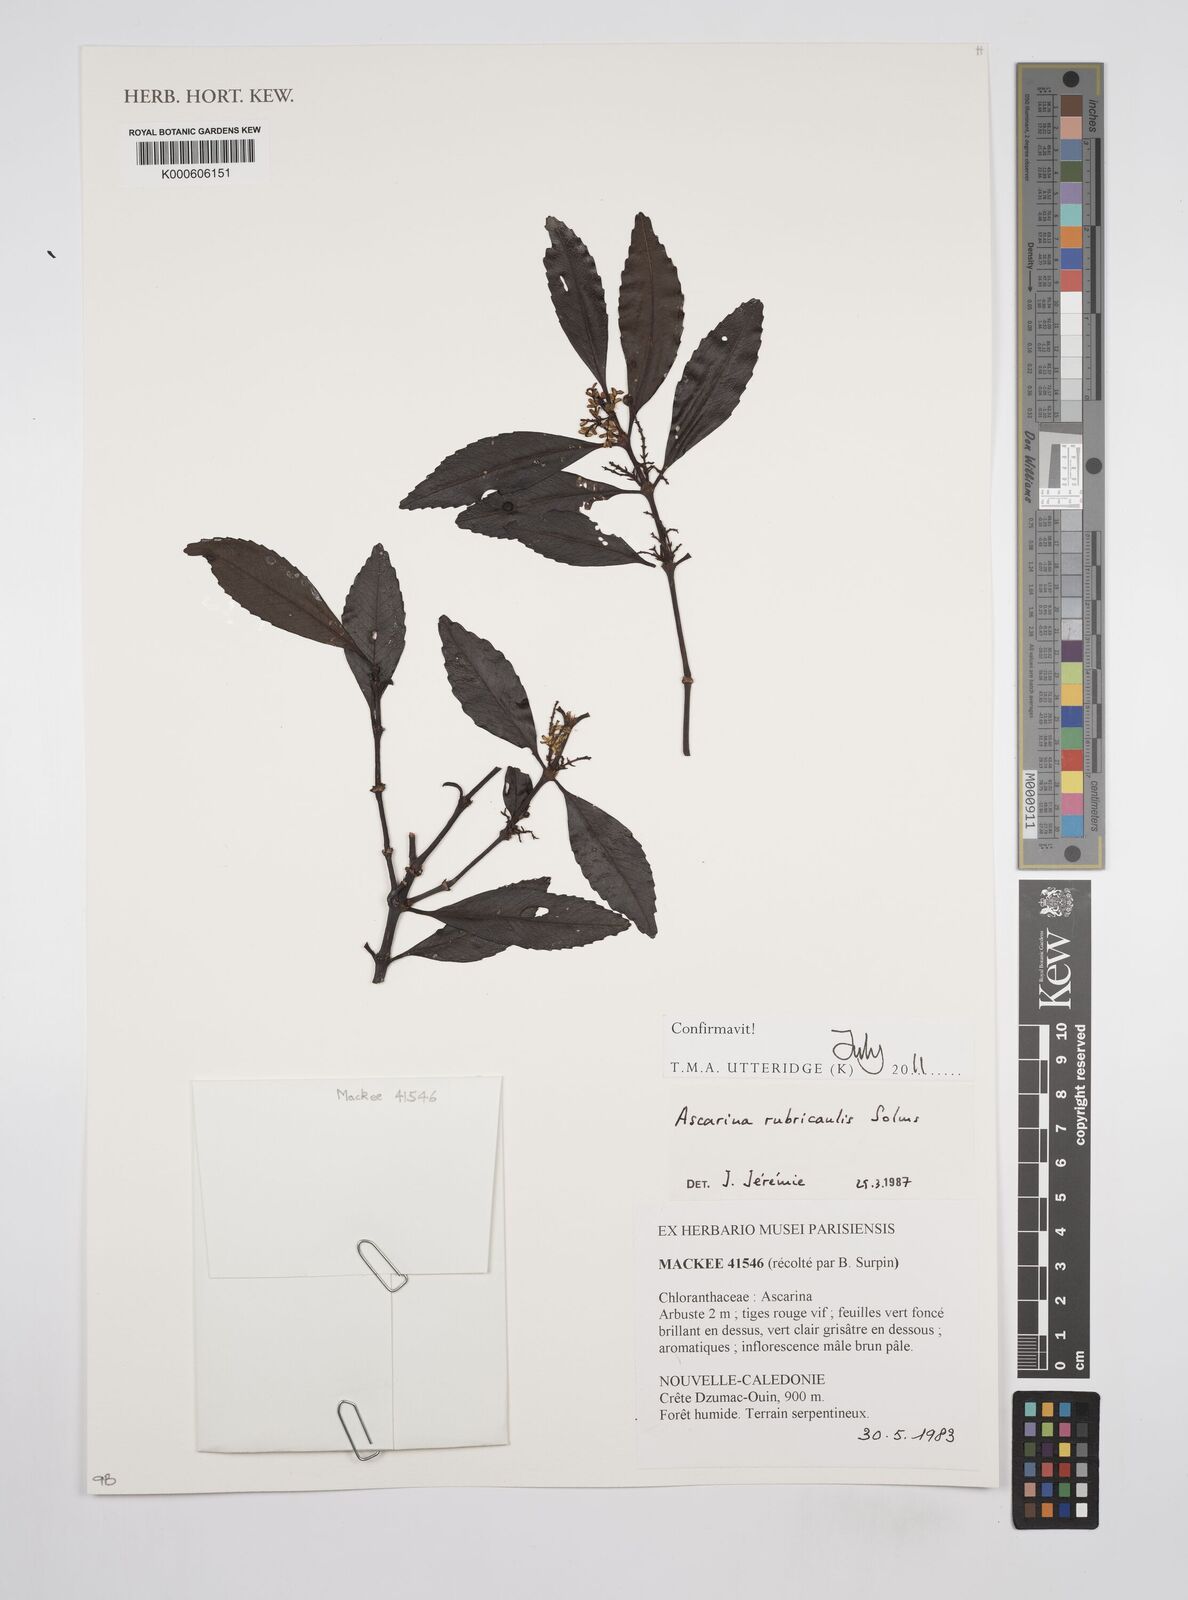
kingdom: Plantae
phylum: Tracheophyta
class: Magnoliopsida
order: Chloranthales
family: Chloranthaceae
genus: Ascarina
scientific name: Ascarina rubricaulis
